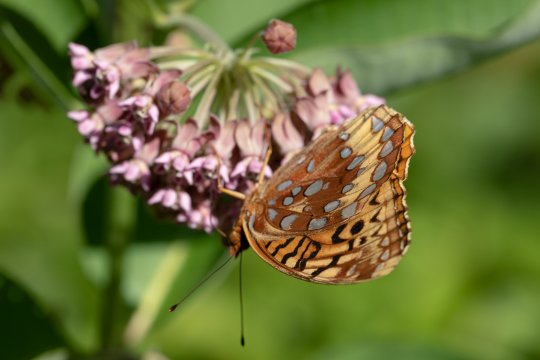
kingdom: Animalia
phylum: Arthropoda
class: Insecta
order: Lepidoptera
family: Nymphalidae
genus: Speyeria
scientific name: Speyeria cybele
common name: Great Spangled Fritillary
